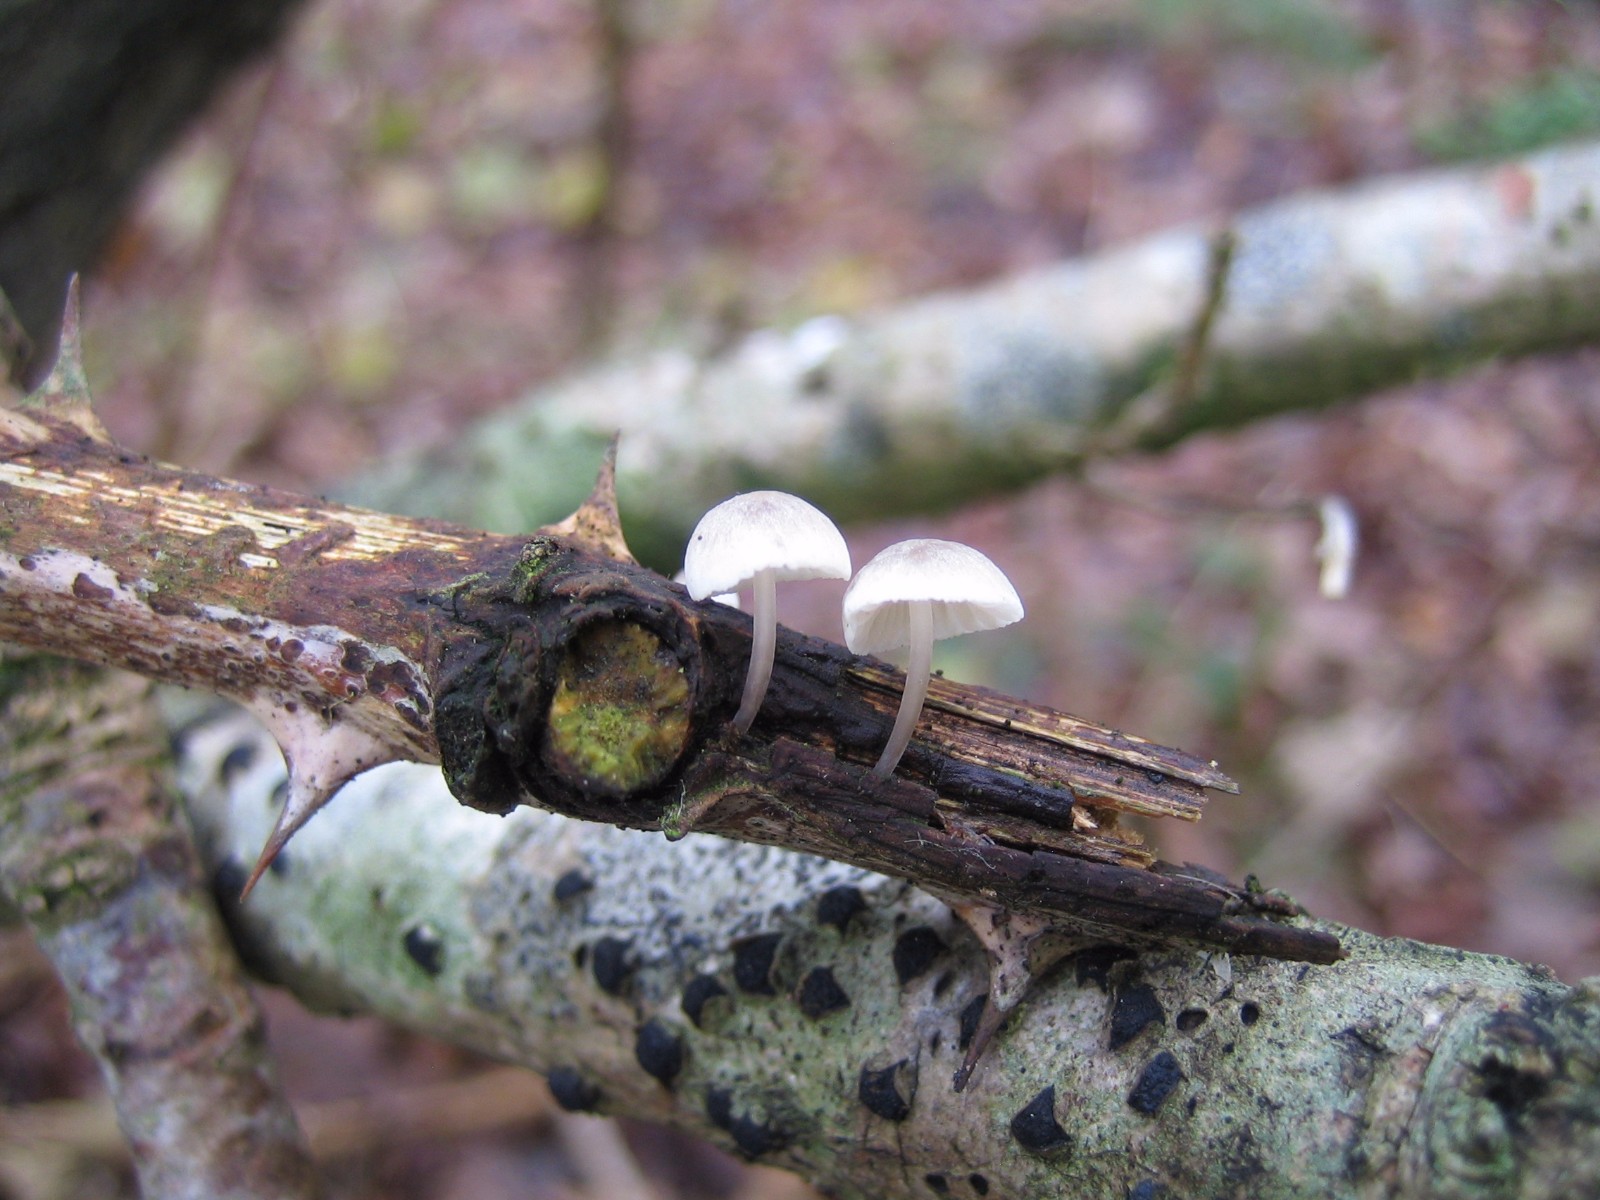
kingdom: Fungi
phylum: Basidiomycota
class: Agaricomycetes
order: Agaricales
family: Mycenaceae
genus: Mycena
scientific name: Mycena
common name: huesvamp
